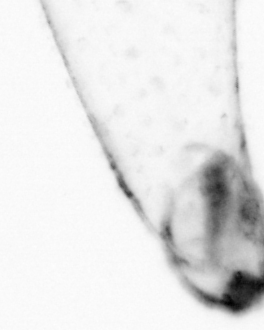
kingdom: Animalia
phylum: Chaetognatha
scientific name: Chaetognatha
